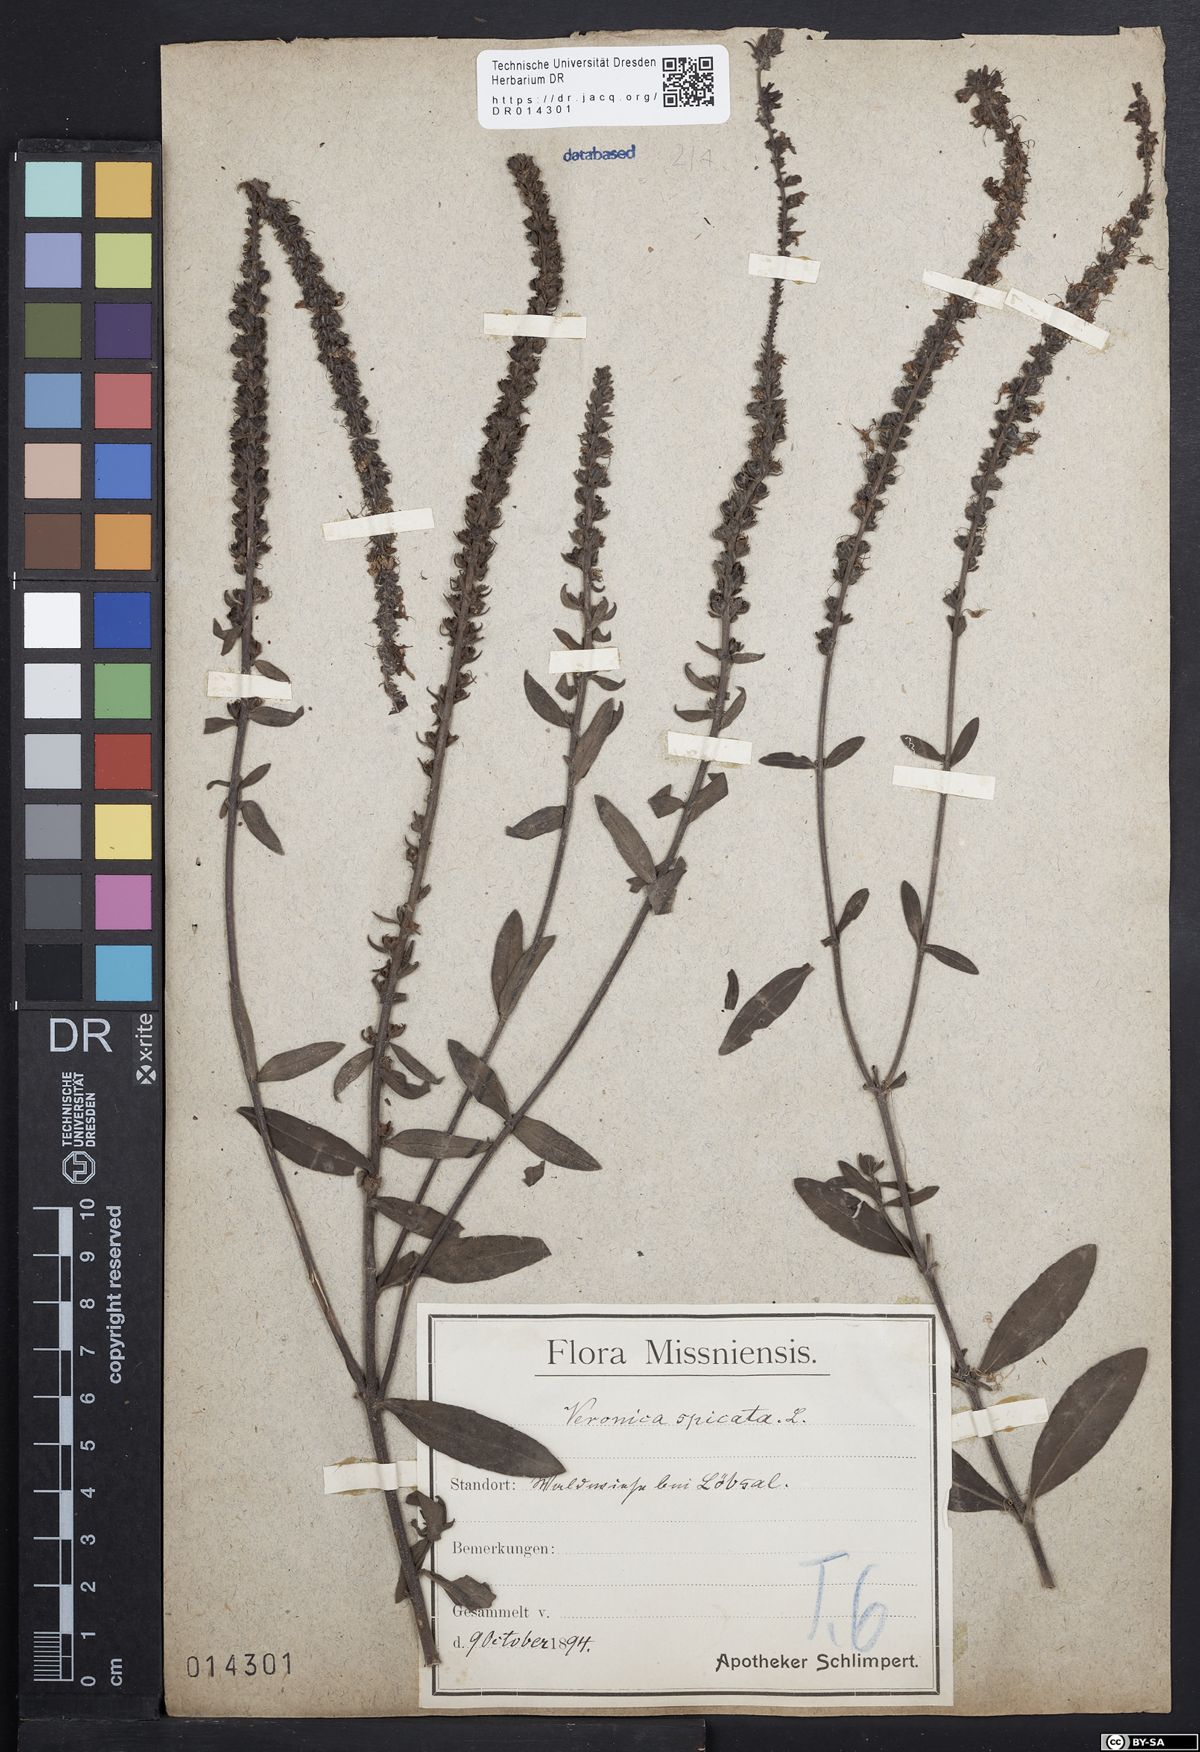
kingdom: Plantae
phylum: Tracheophyta
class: Magnoliopsida
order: Lamiales
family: Plantaginaceae
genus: Veronica
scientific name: Veronica spicata
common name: Spiked speedwell
